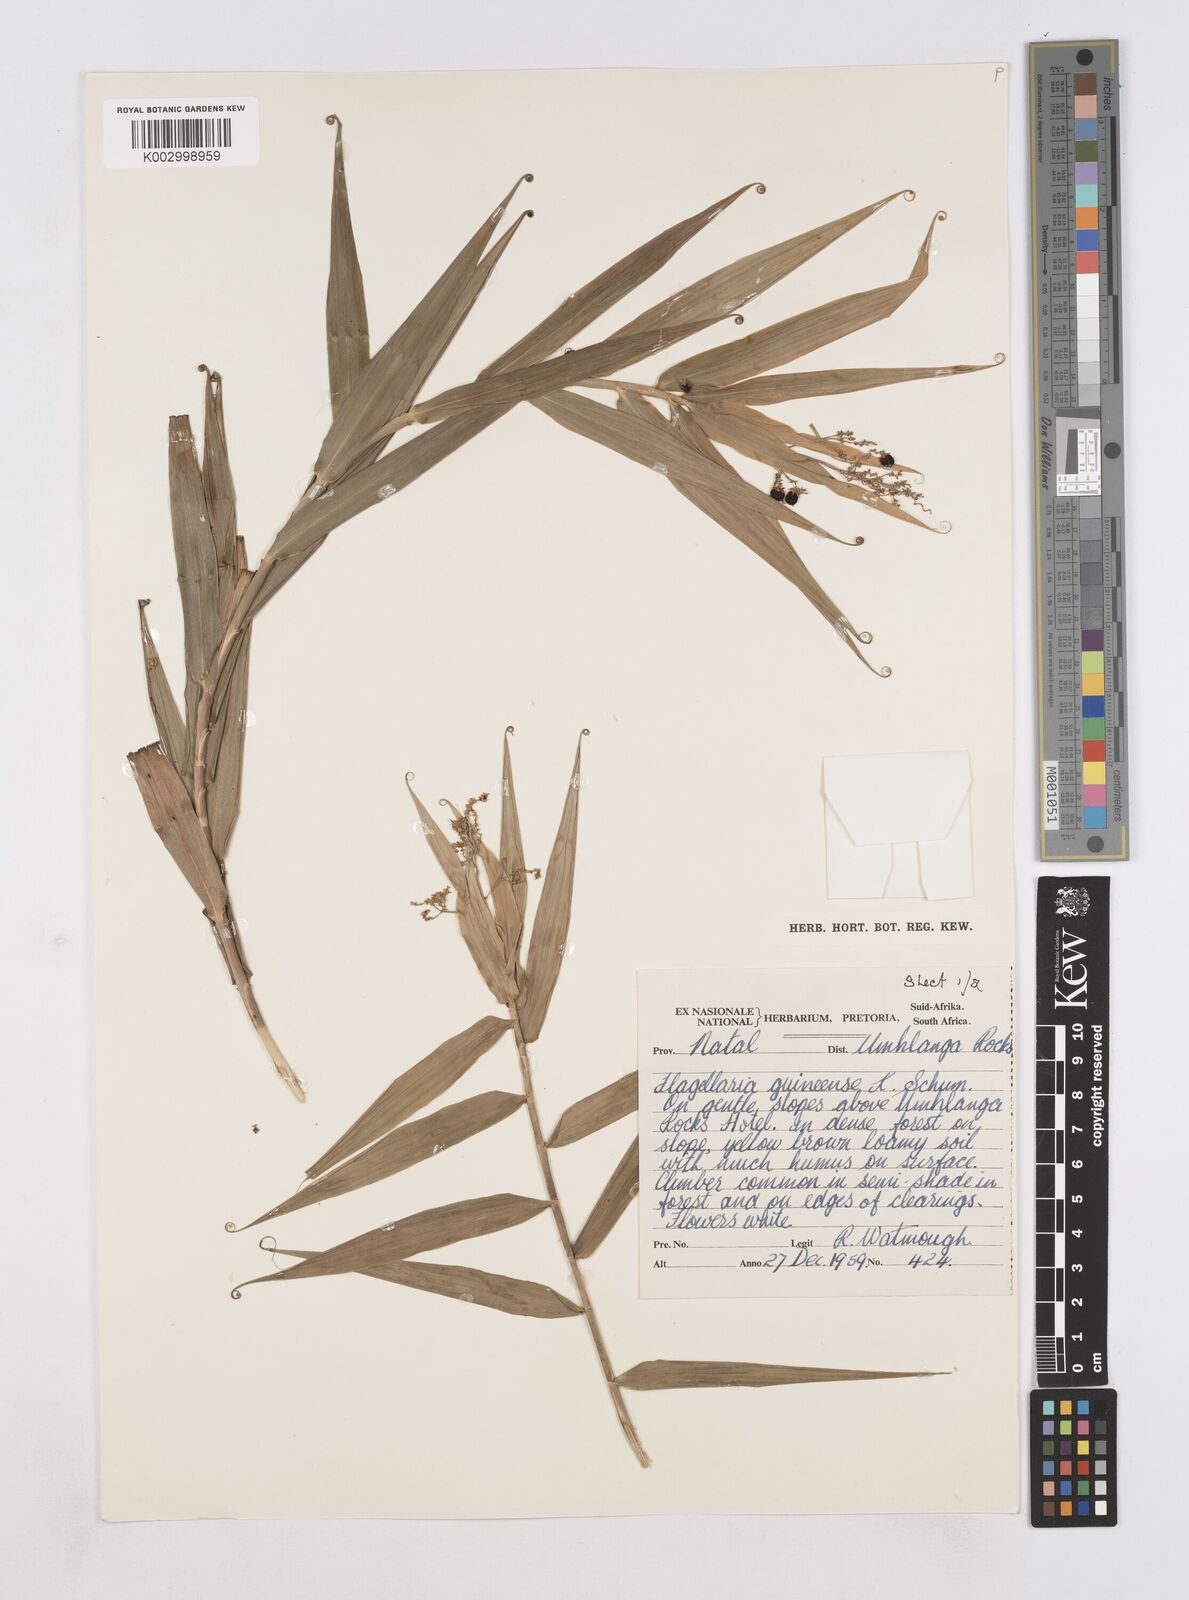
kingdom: Plantae
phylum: Tracheophyta
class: Liliopsida
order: Poales
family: Flagellariaceae
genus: Flagellaria
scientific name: Flagellaria guineensis
